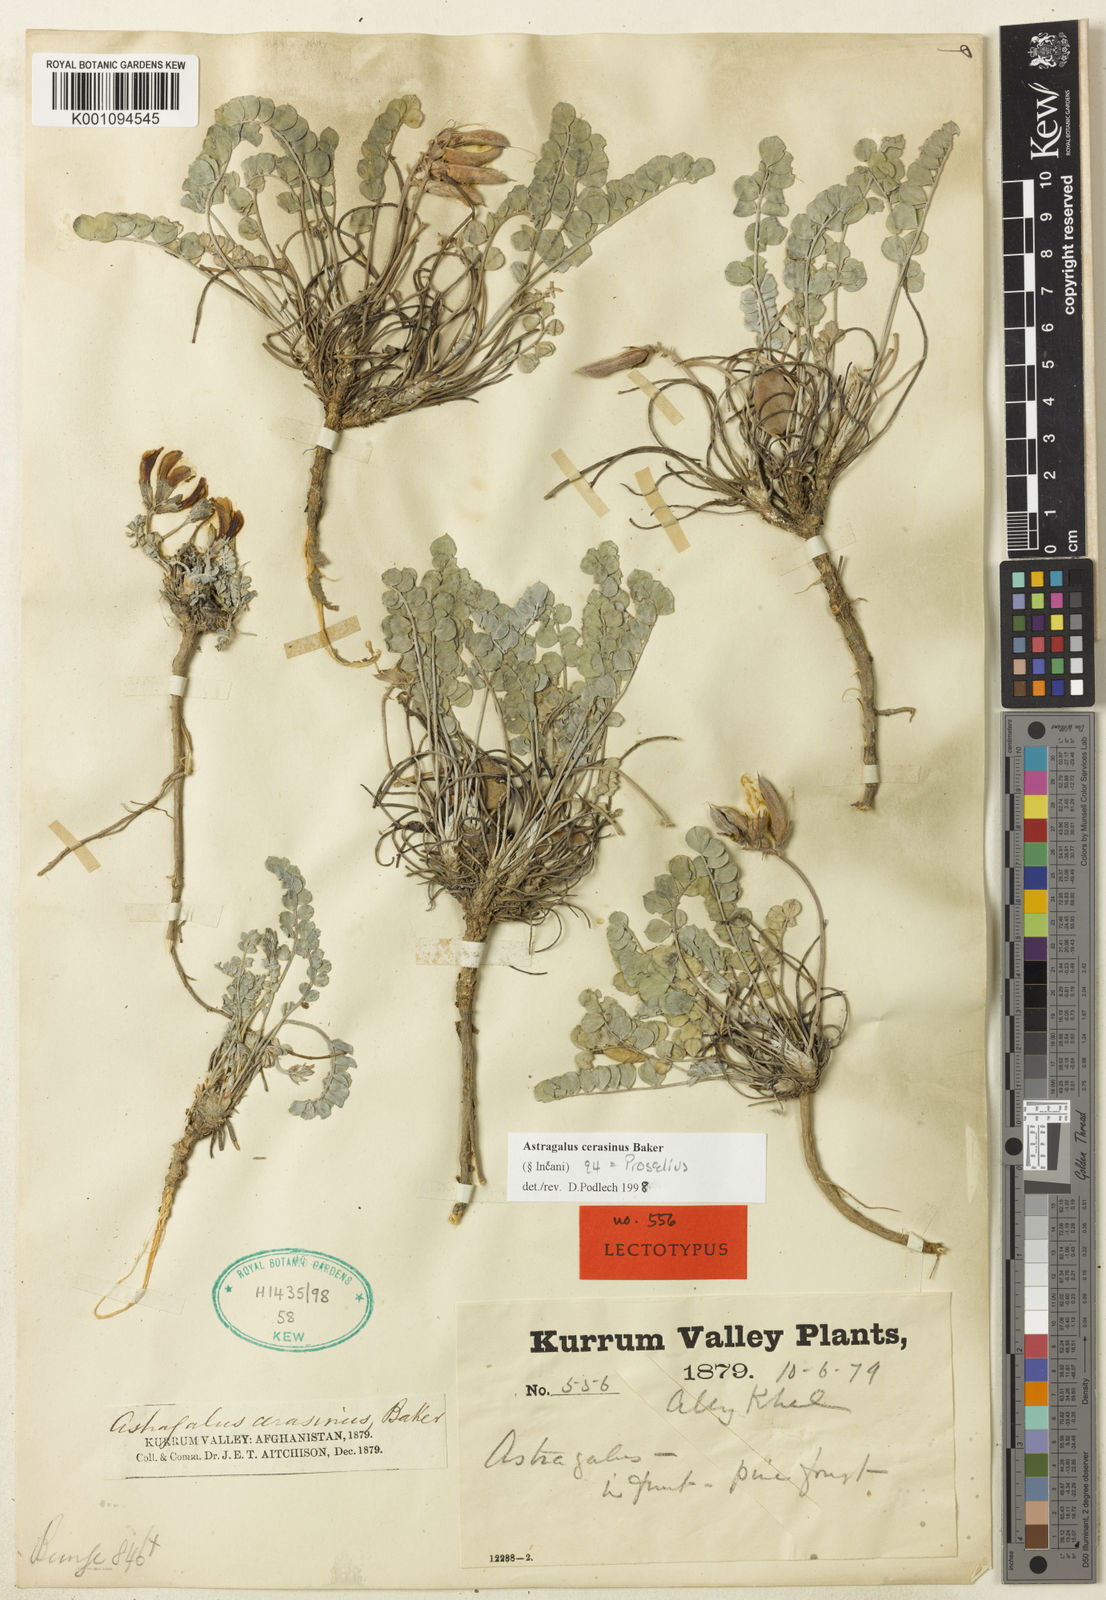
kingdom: Plantae
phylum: Tracheophyta
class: Magnoliopsida
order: Fabales
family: Fabaceae
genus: Astragalus
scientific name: Astragalus
